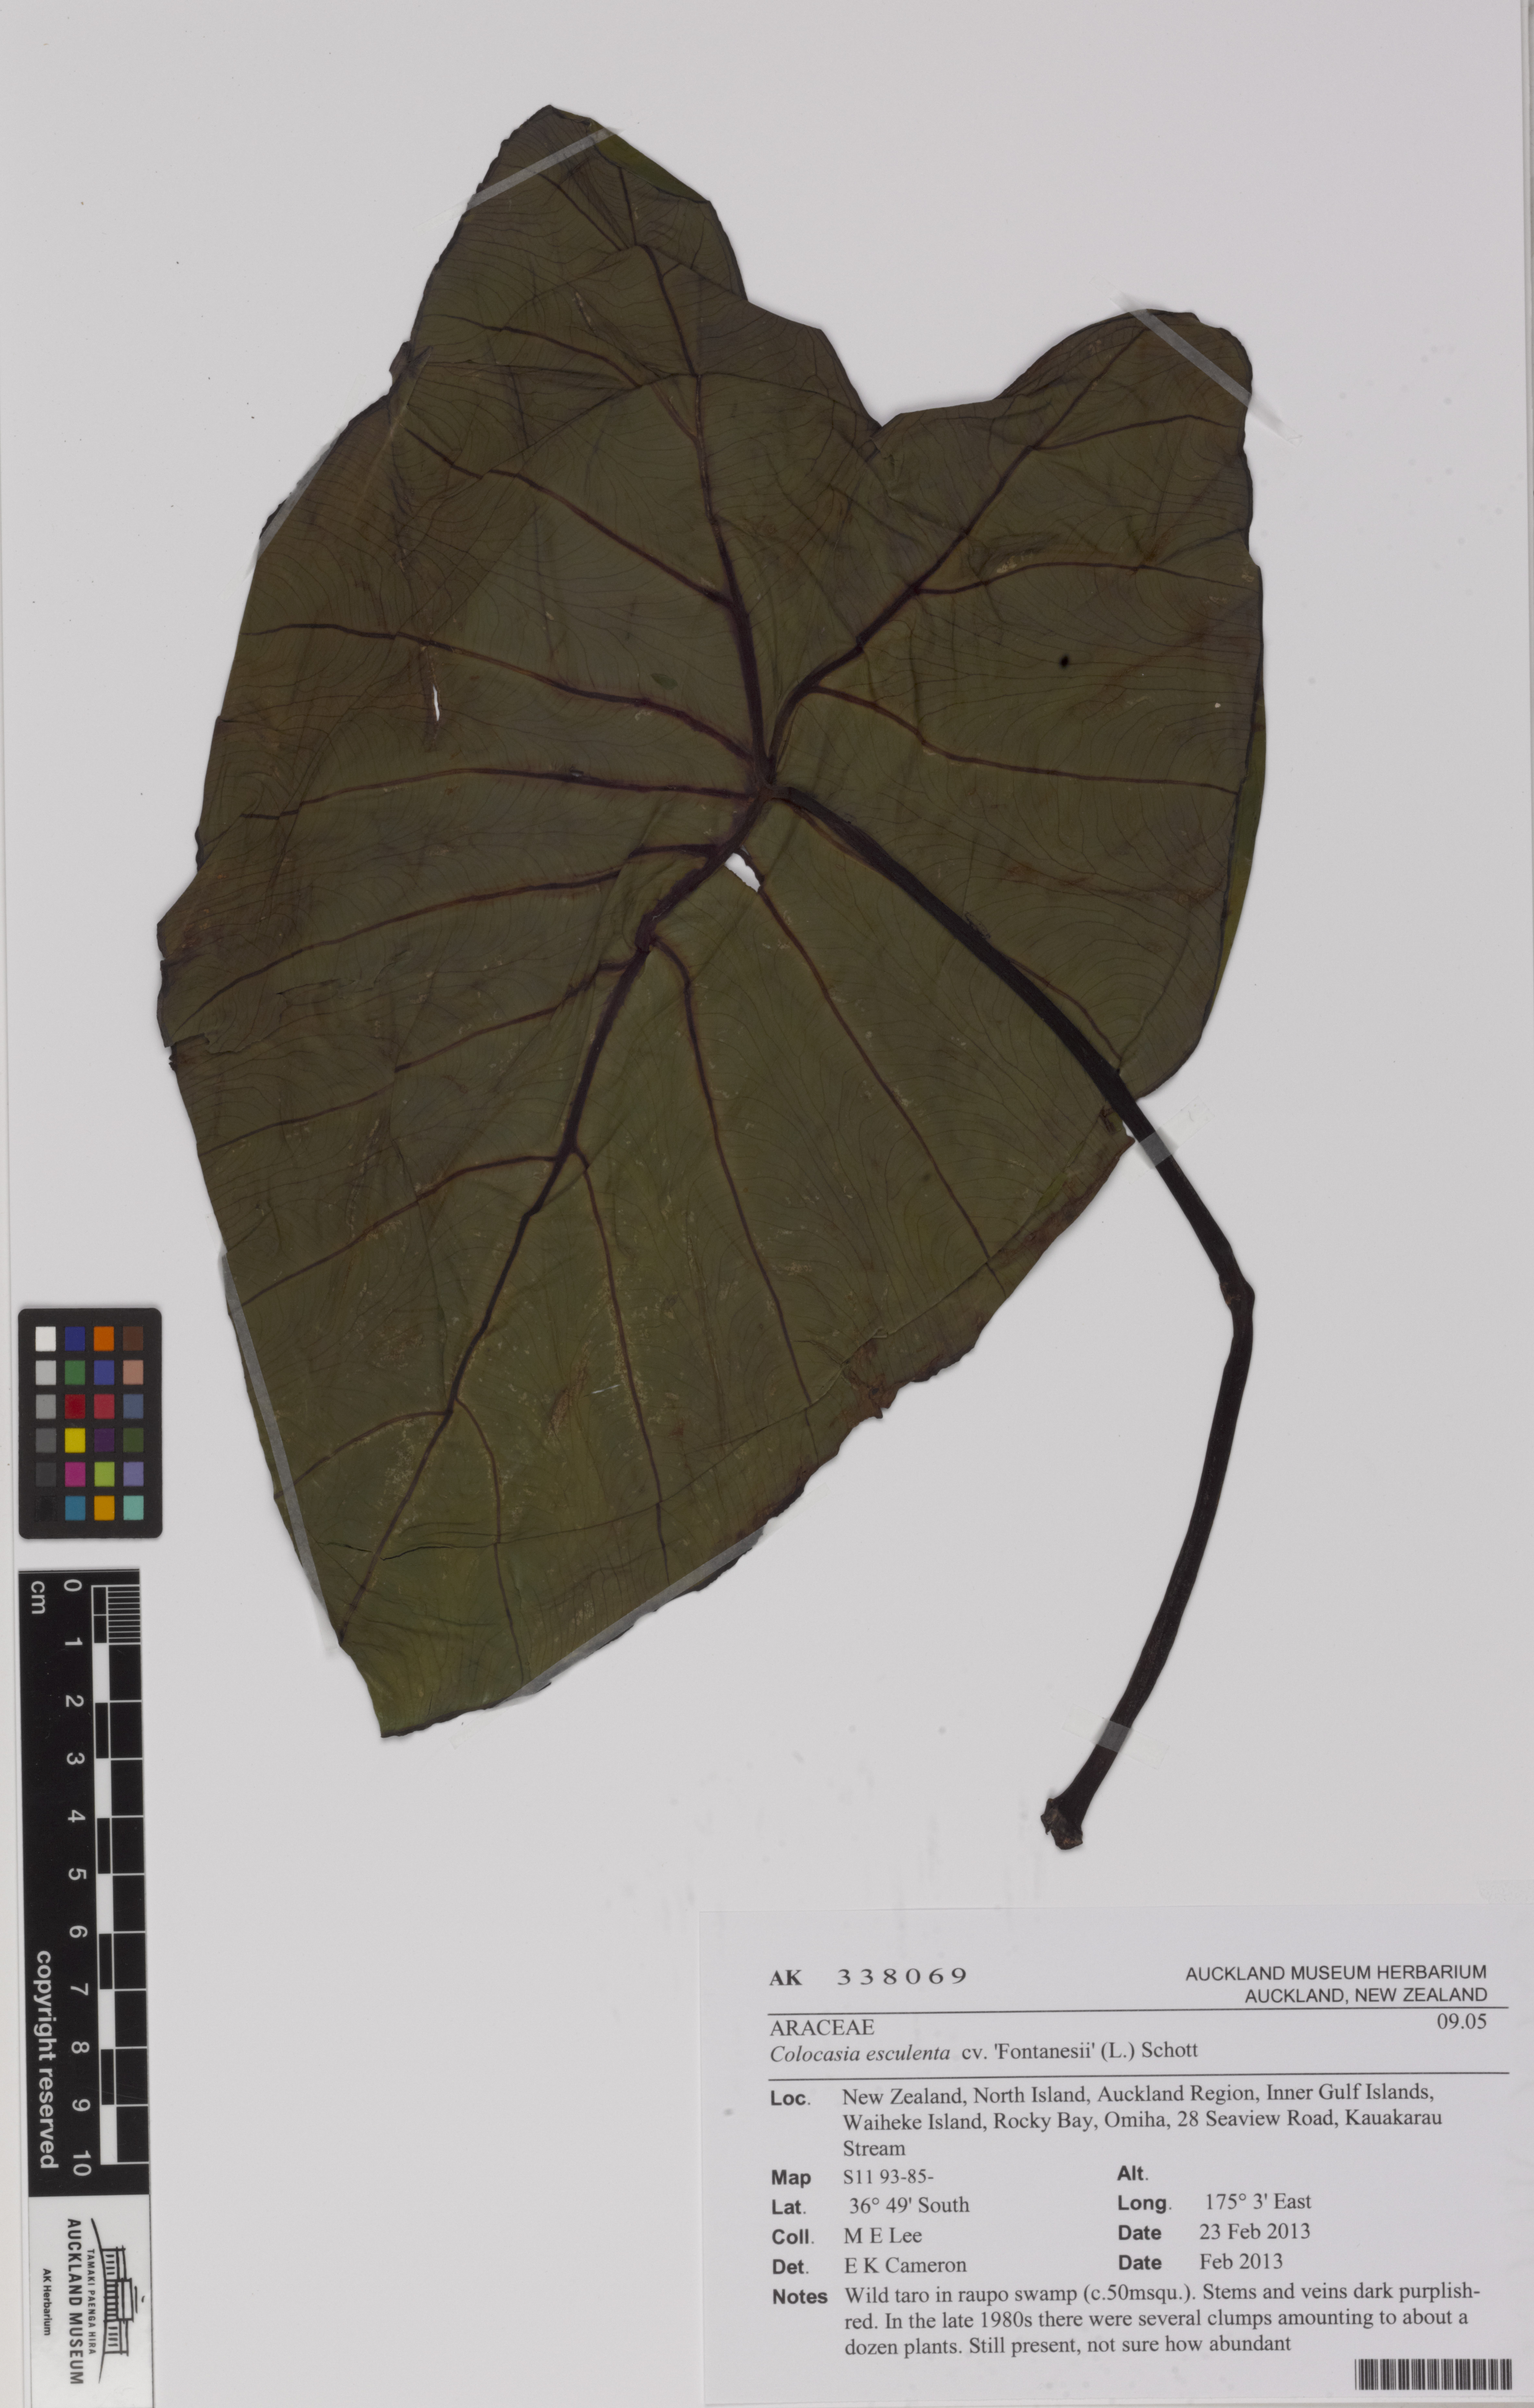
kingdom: Plantae
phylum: Tracheophyta
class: Liliopsida
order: Alismatales
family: Araceae
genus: Colocasia
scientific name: Colocasia esculenta
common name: Taro
